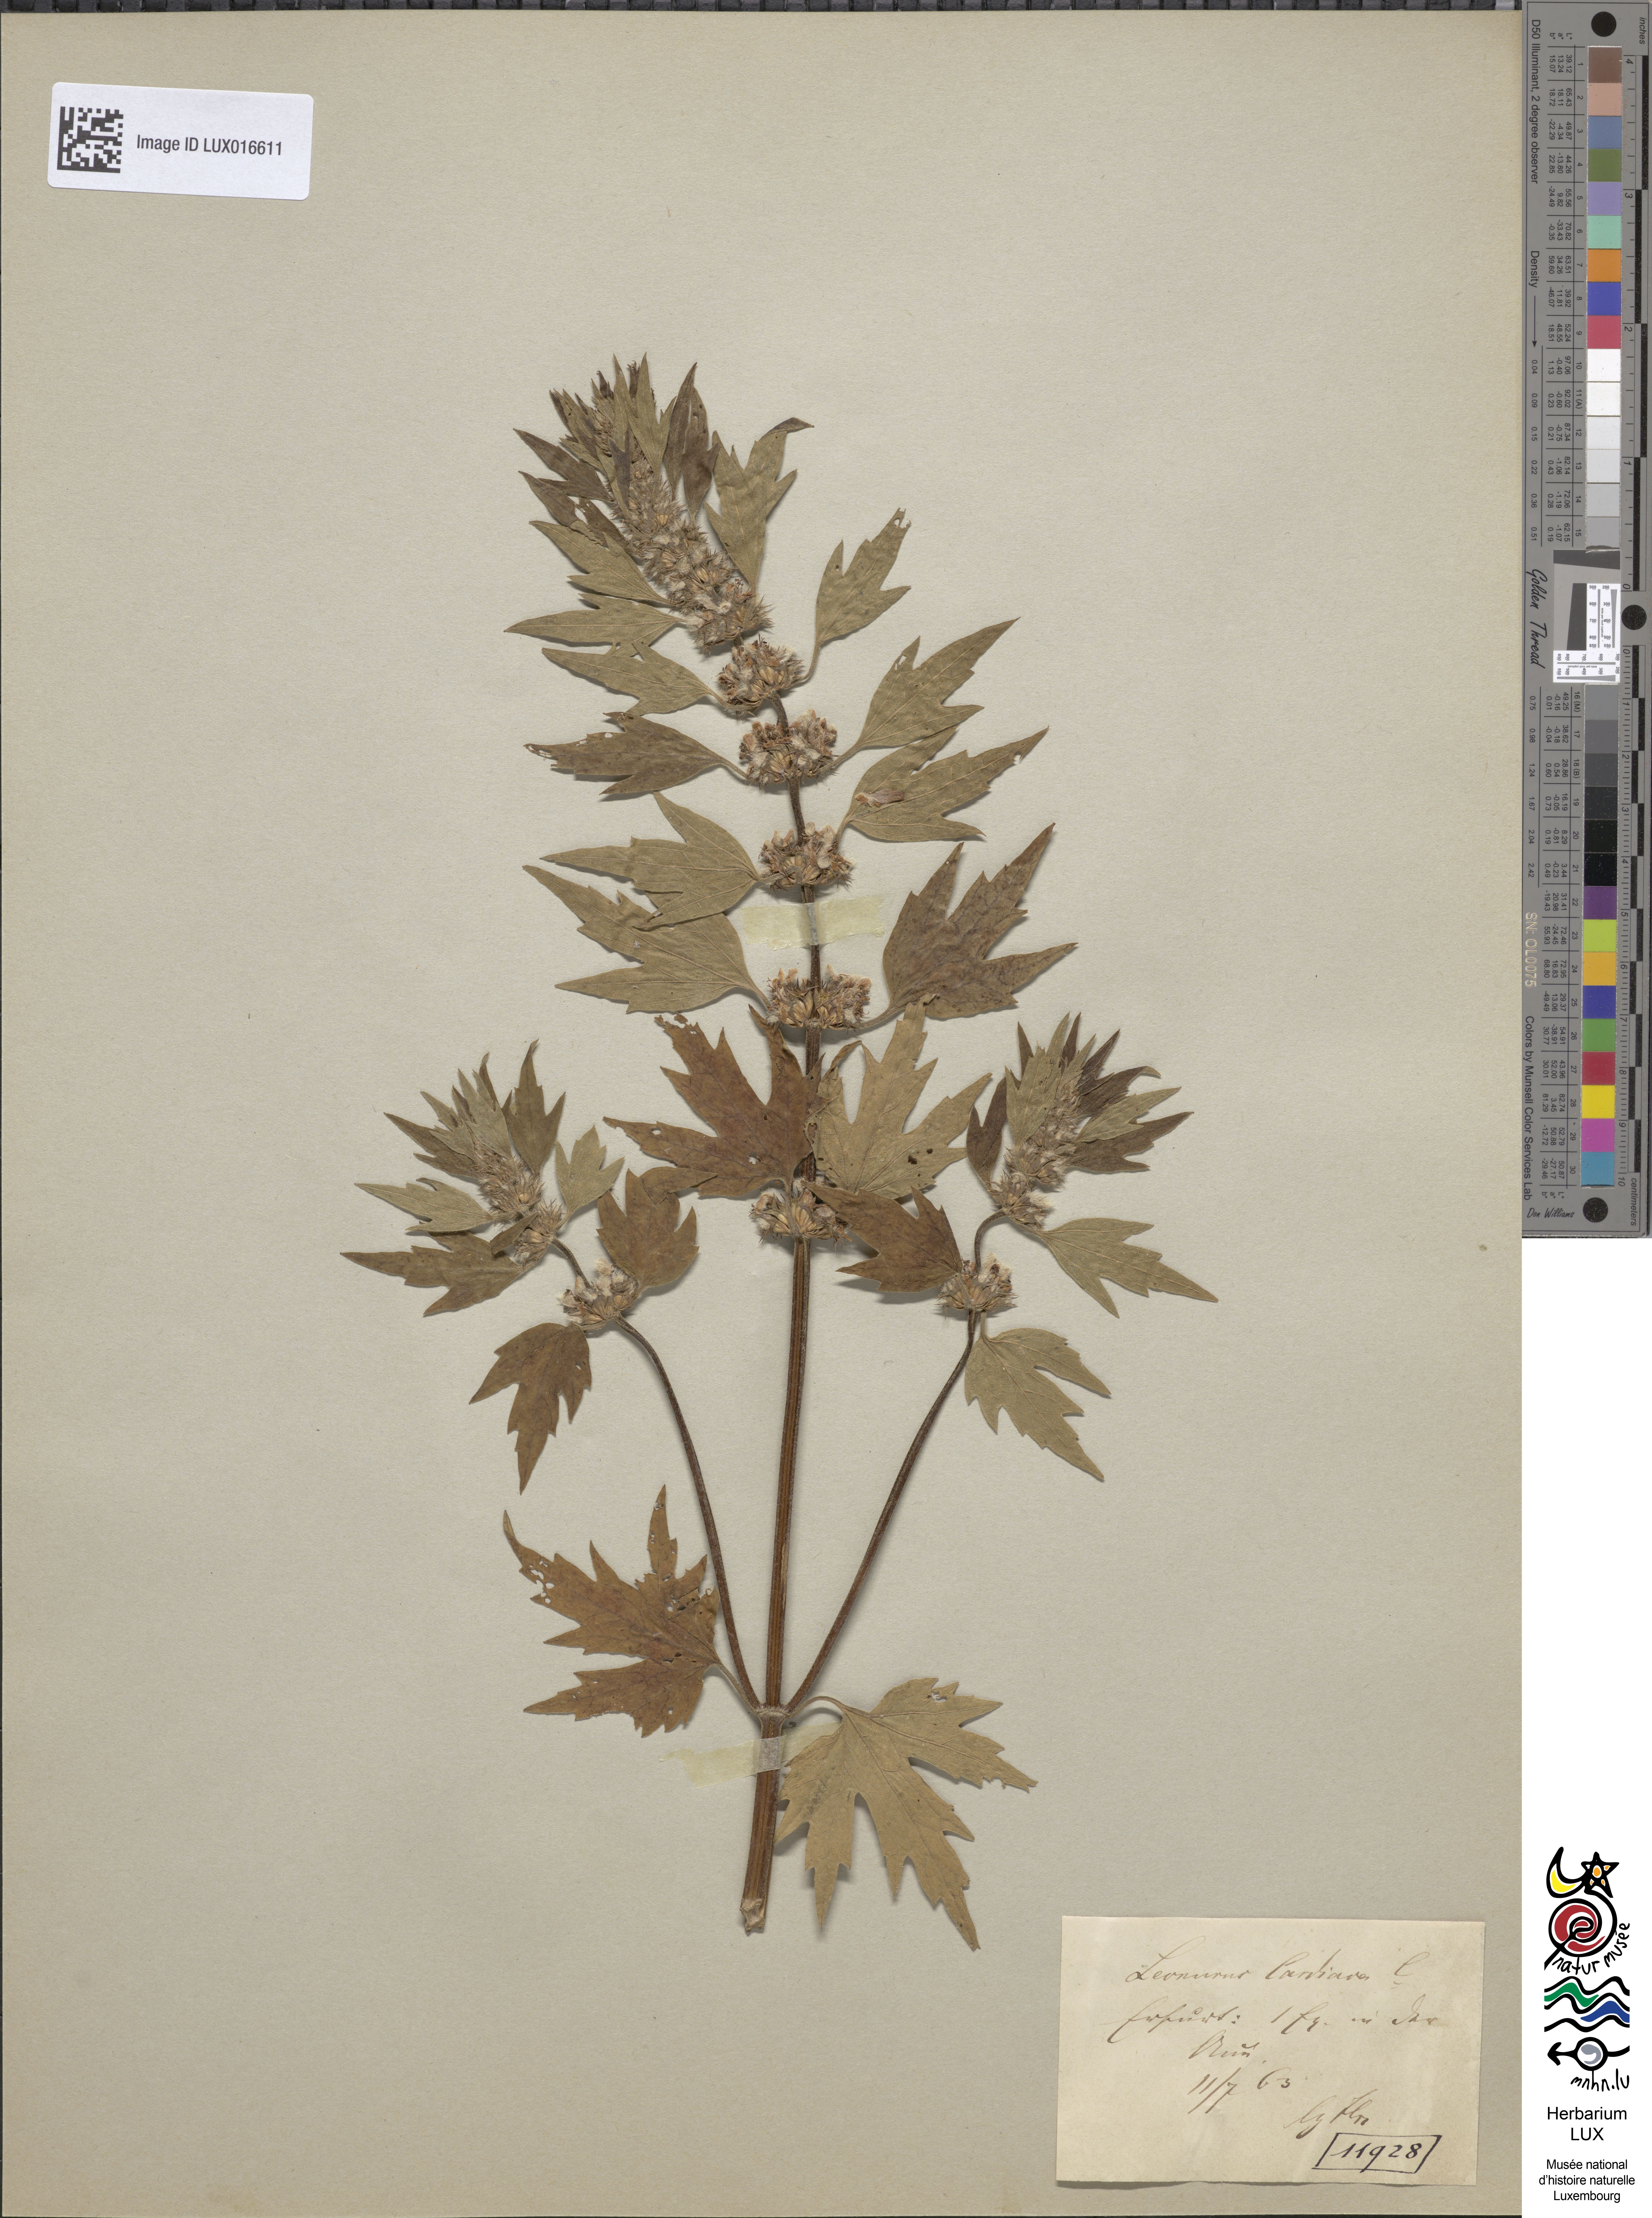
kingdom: Plantae
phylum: Tracheophyta
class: Magnoliopsida
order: Lamiales
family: Lamiaceae
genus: Leonurus
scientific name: Leonurus cardiaca
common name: Motherwort
